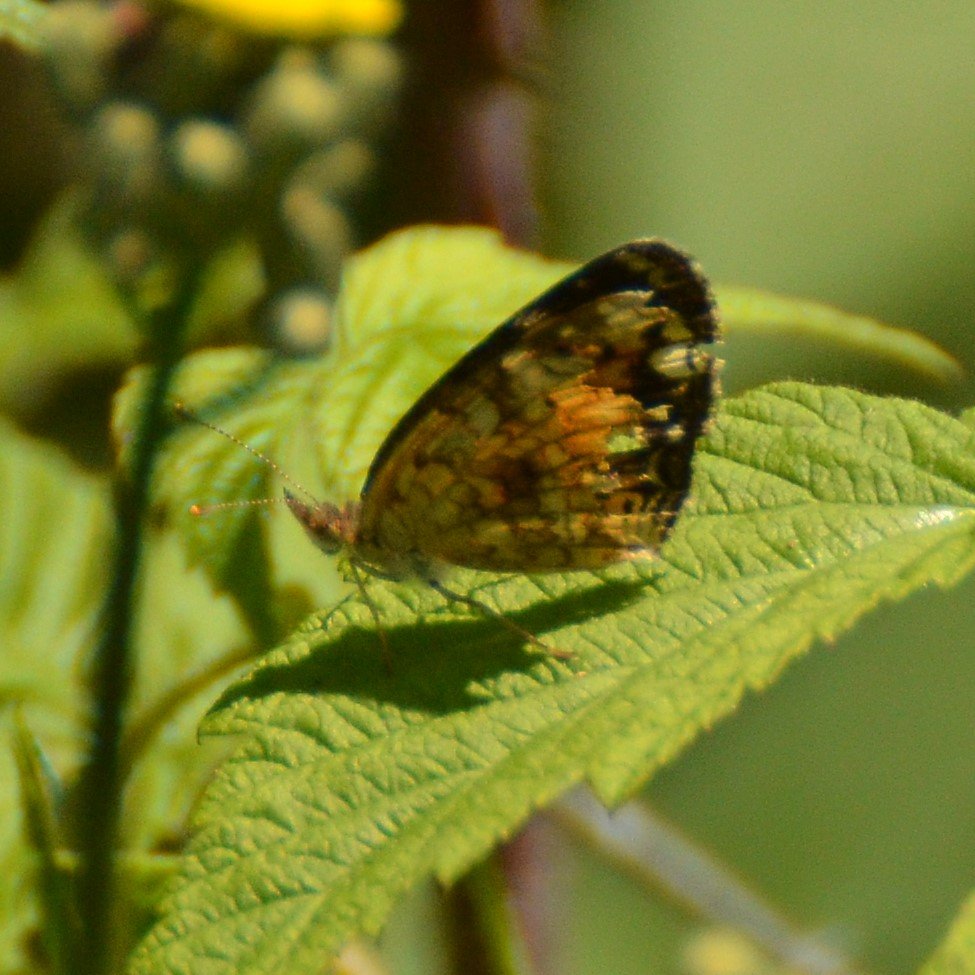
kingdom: Animalia
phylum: Arthropoda
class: Insecta
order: Lepidoptera
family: Nymphalidae
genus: Phyciodes
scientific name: Phyciodes tharos
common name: Northern Crescent
